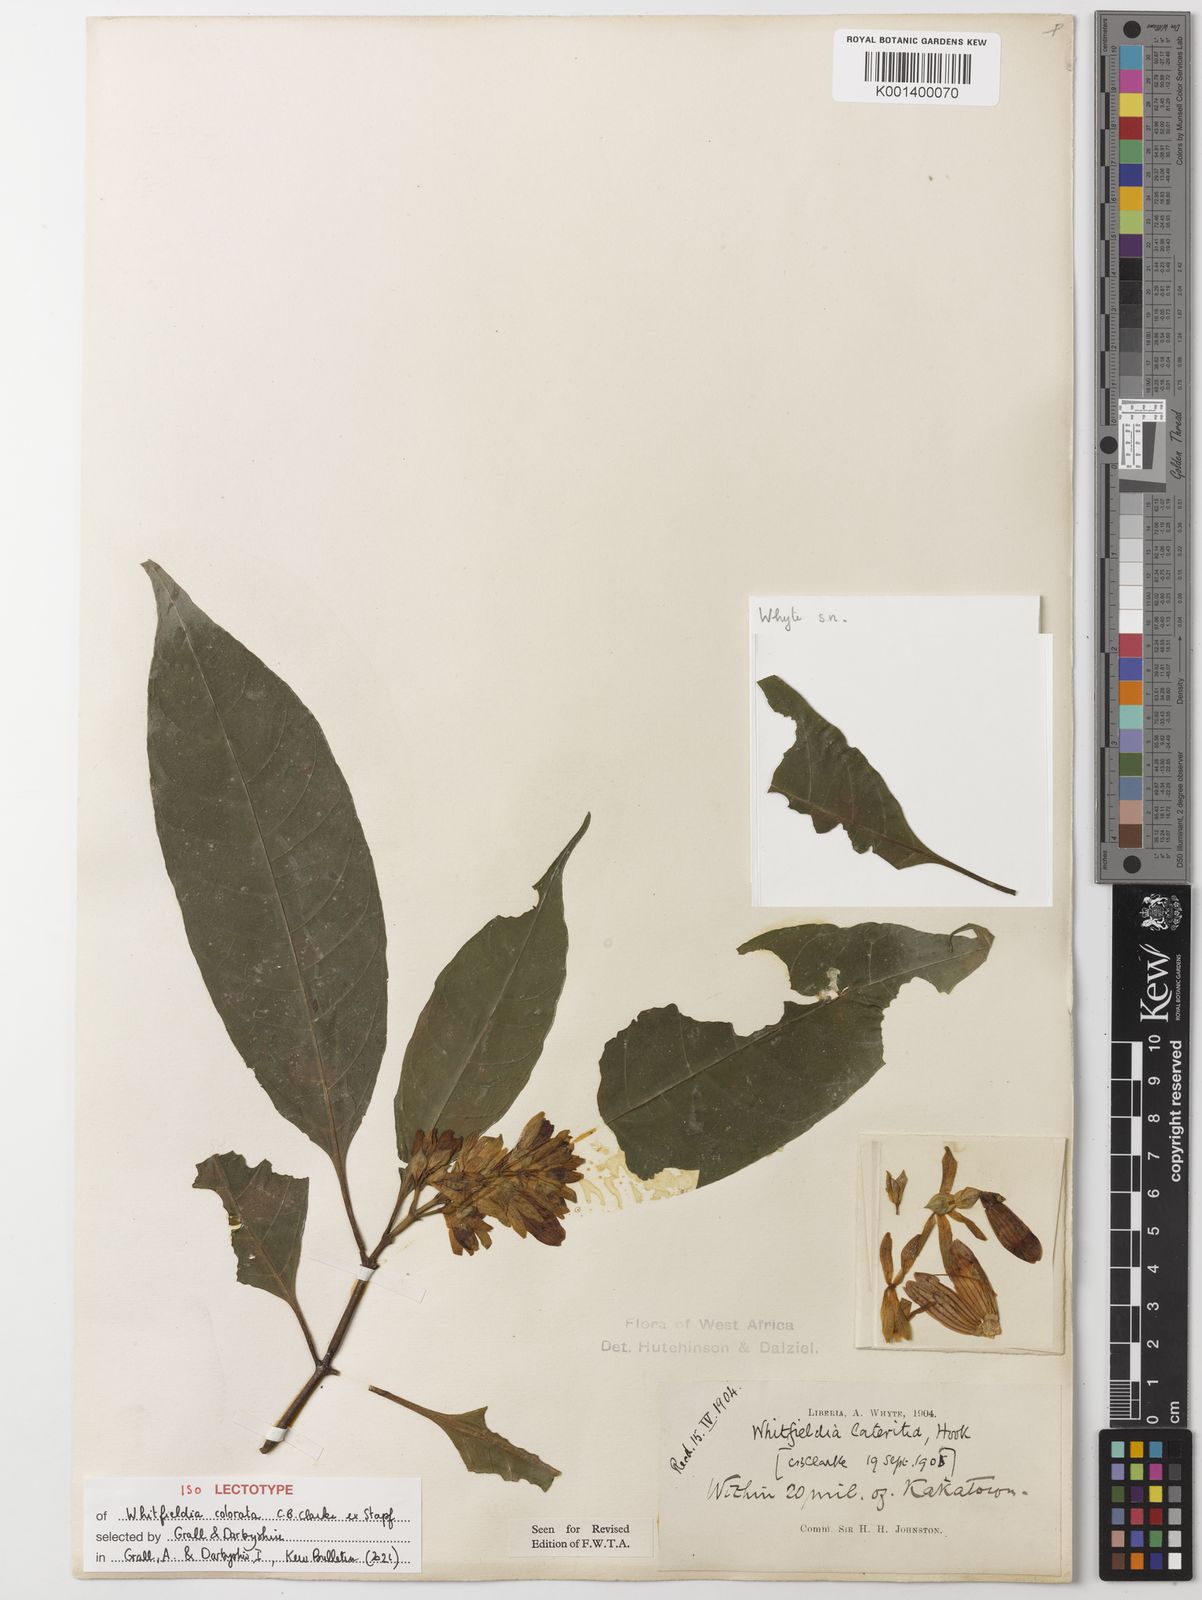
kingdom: Plantae
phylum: Tracheophyta
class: Magnoliopsida
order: Lamiales
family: Acanthaceae
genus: Whitfieldia
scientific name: Whitfieldia colorata
